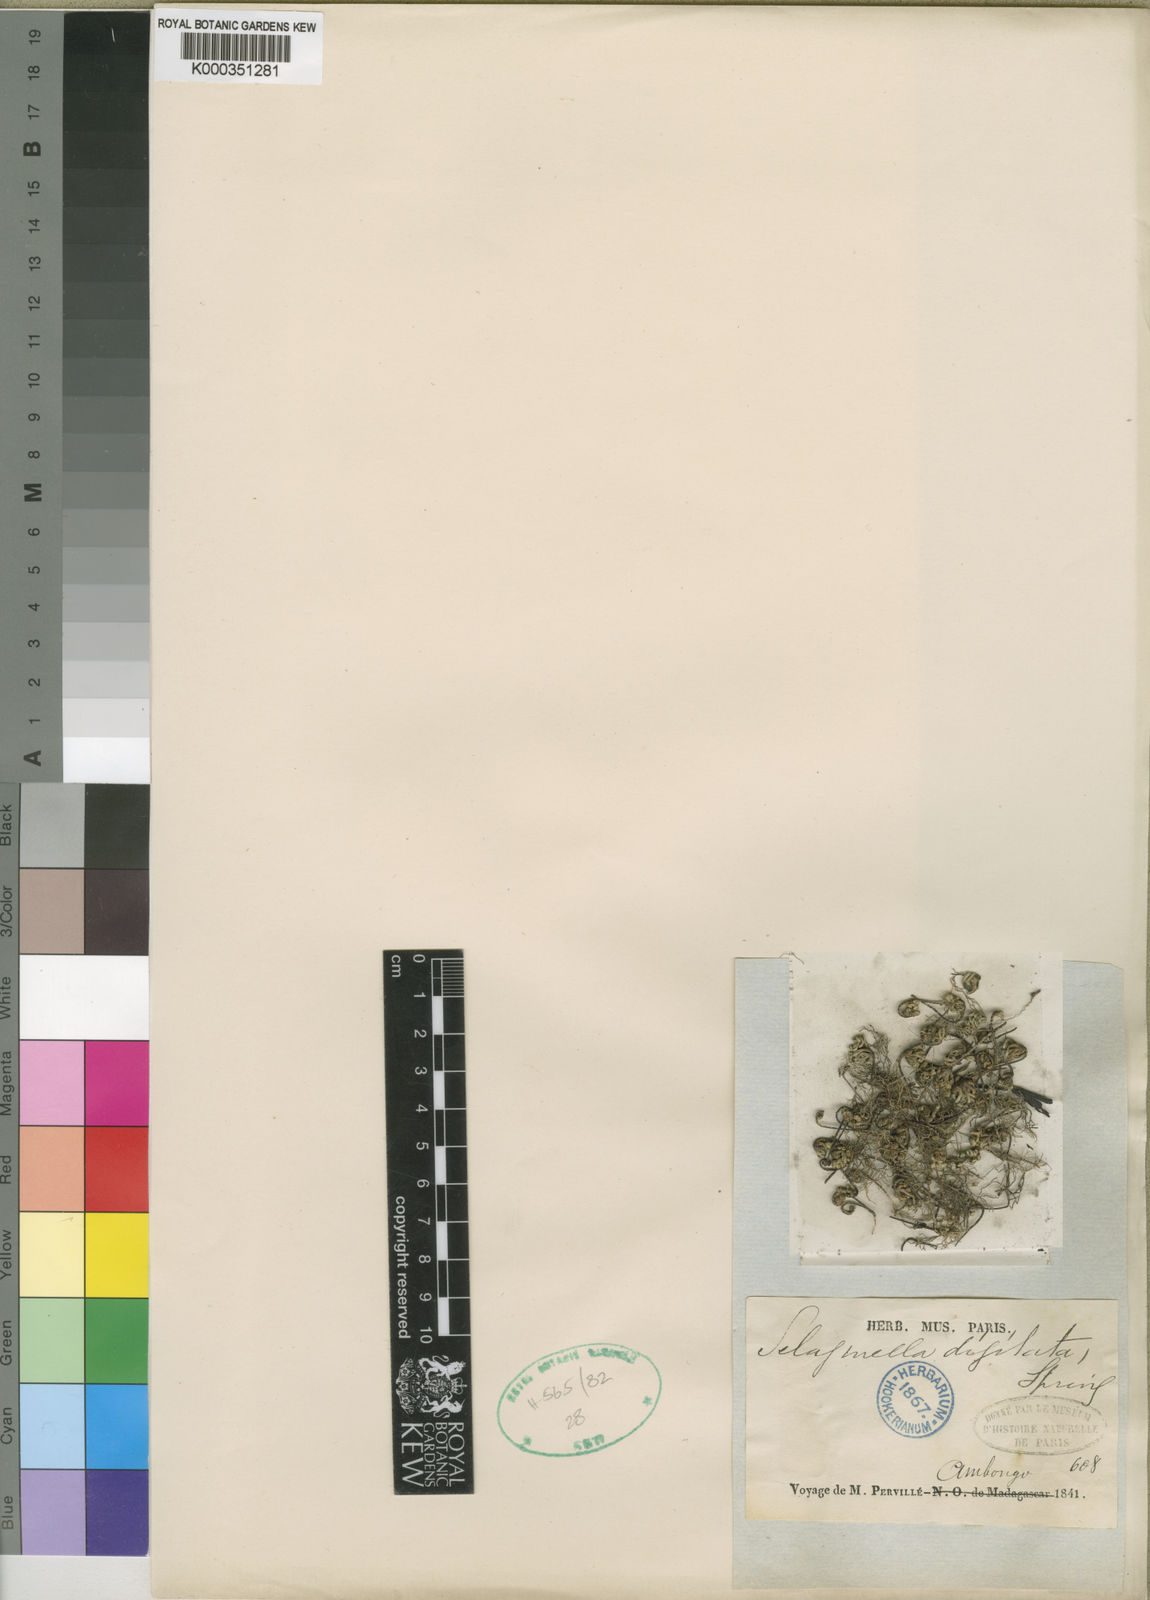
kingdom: Plantae
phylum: Tracheophyta
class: Lycopodiopsida
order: Selaginellales
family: Selaginellaceae
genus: Selaginella
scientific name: Selaginella digitata
